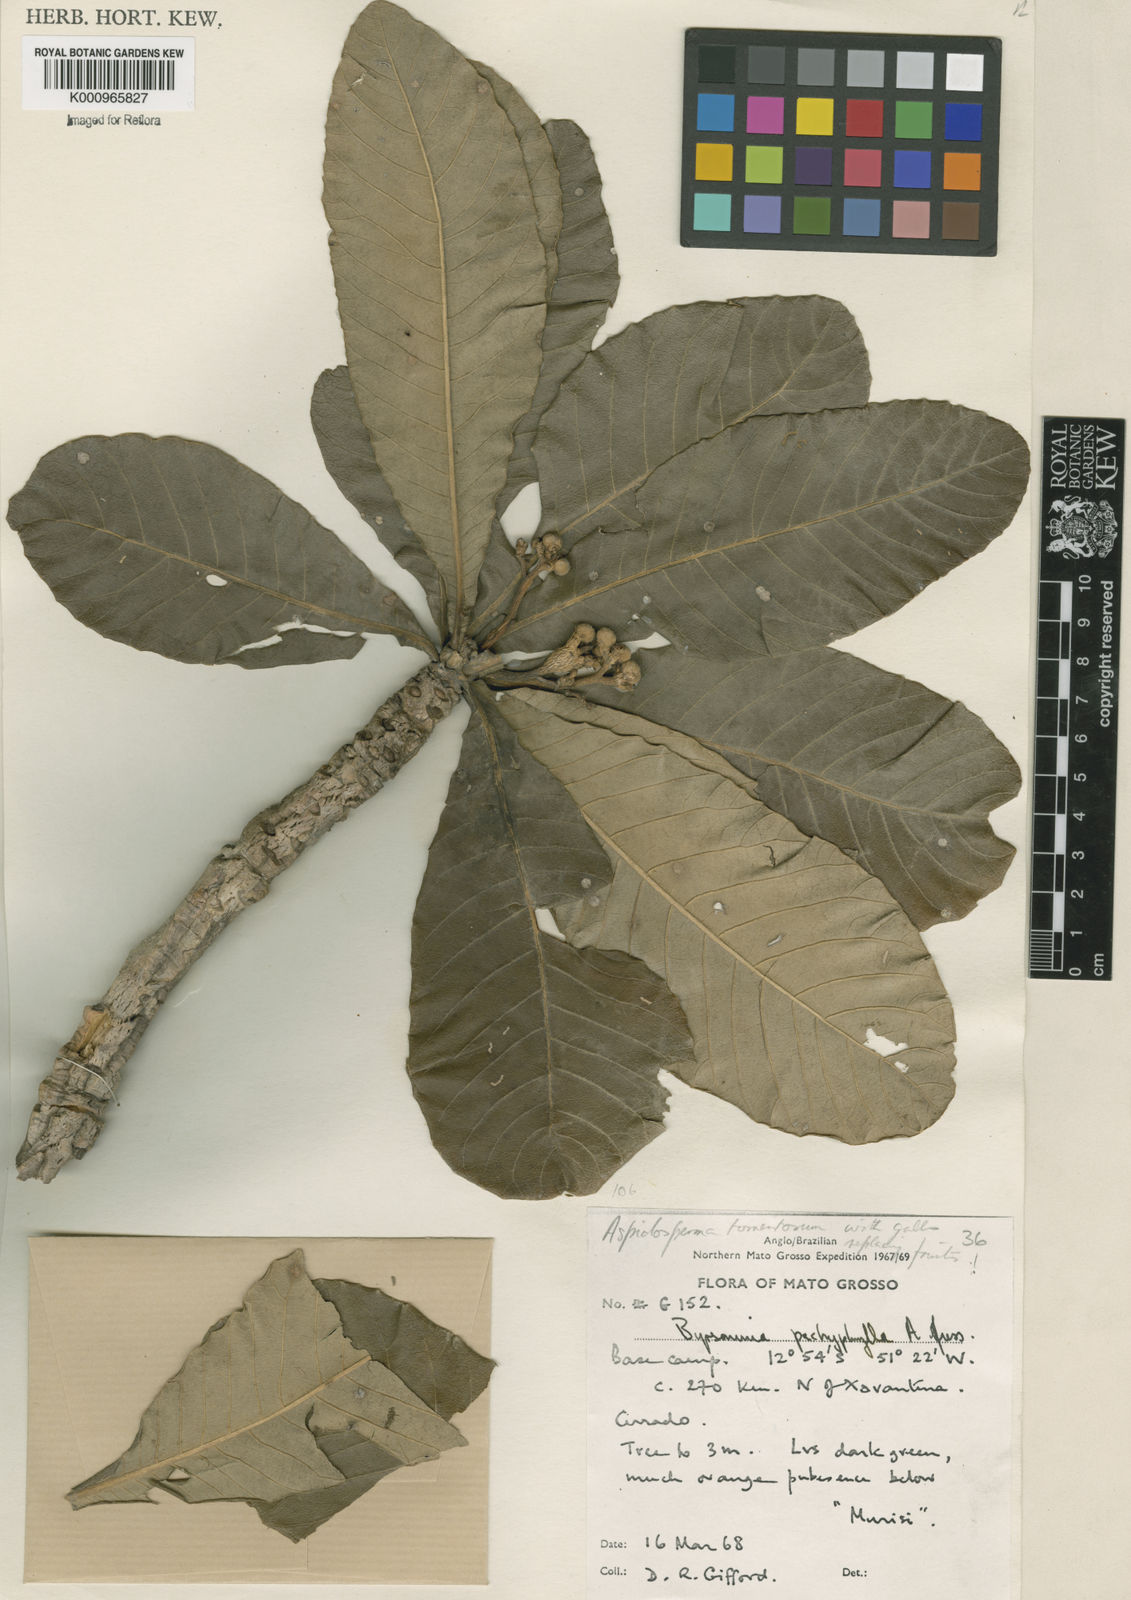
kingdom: Plantae
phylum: Tracheophyta
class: Magnoliopsida
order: Gentianales
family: Apocynaceae
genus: Aspidosperma
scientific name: Aspidosperma tomentosum
